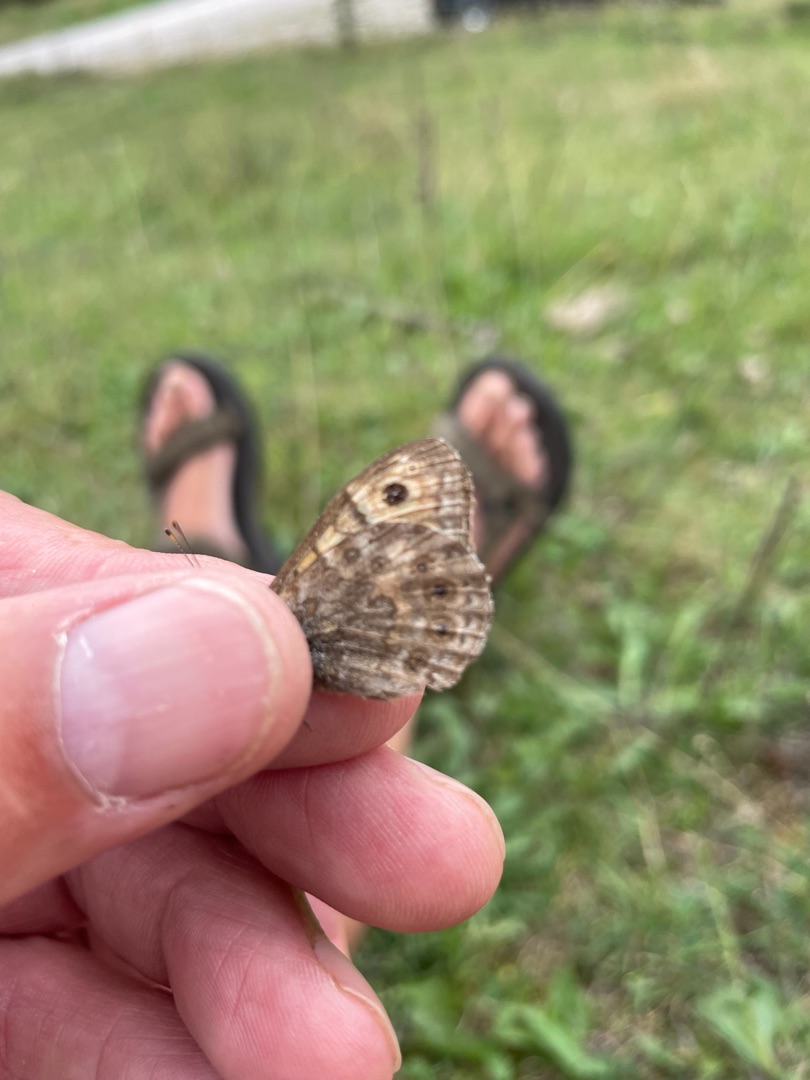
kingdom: Animalia
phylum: Arthropoda
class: Insecta
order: Lepidoptera
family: Nymphalidae
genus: Pararge
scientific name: Pararge Lasiommata megera
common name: Vejrandøje
